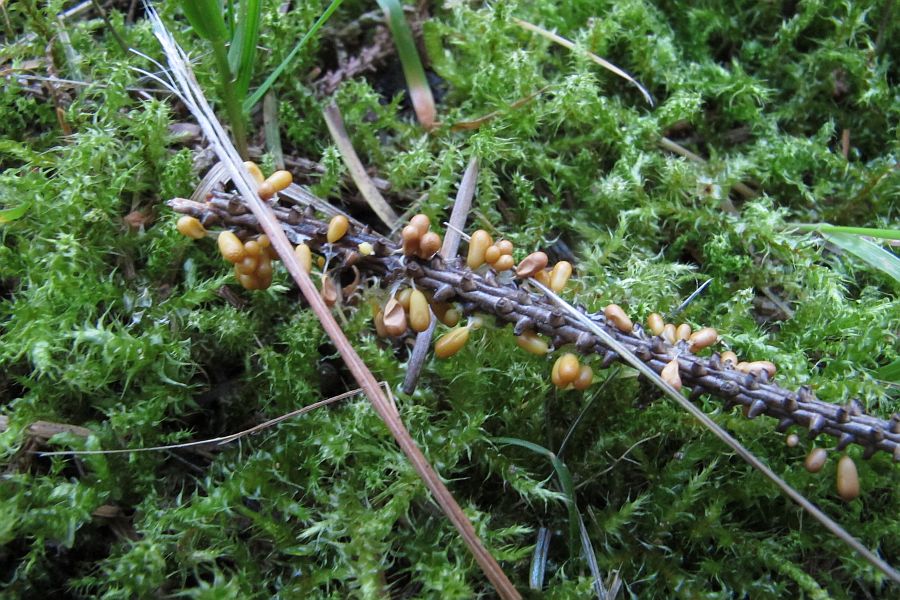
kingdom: Protozoa
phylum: Mycetozoa
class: Myxomycetes
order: Physarales
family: Physaraceae
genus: Leocarpus
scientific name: Leocarpus fragilis
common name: poleret glatfrø
